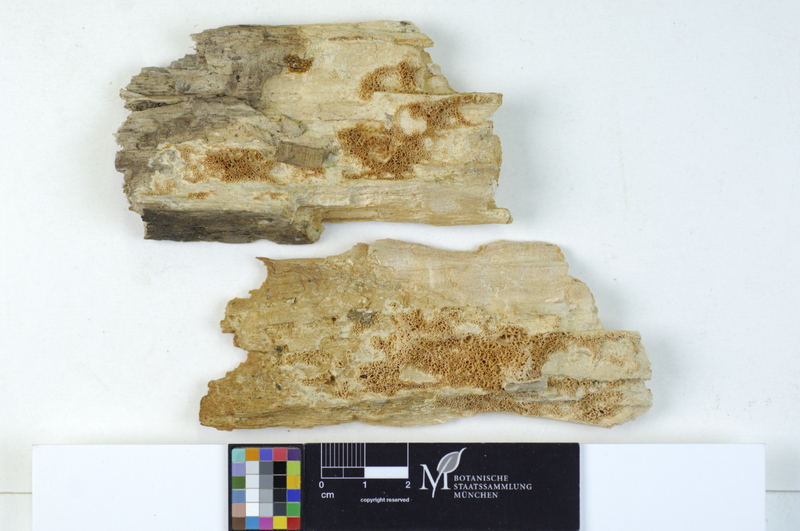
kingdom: Plantae
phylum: Tracheophyta
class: Magnoliopsida
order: Malpighiales
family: Salicaceae
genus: Salix
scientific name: Salix alba
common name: White willow
